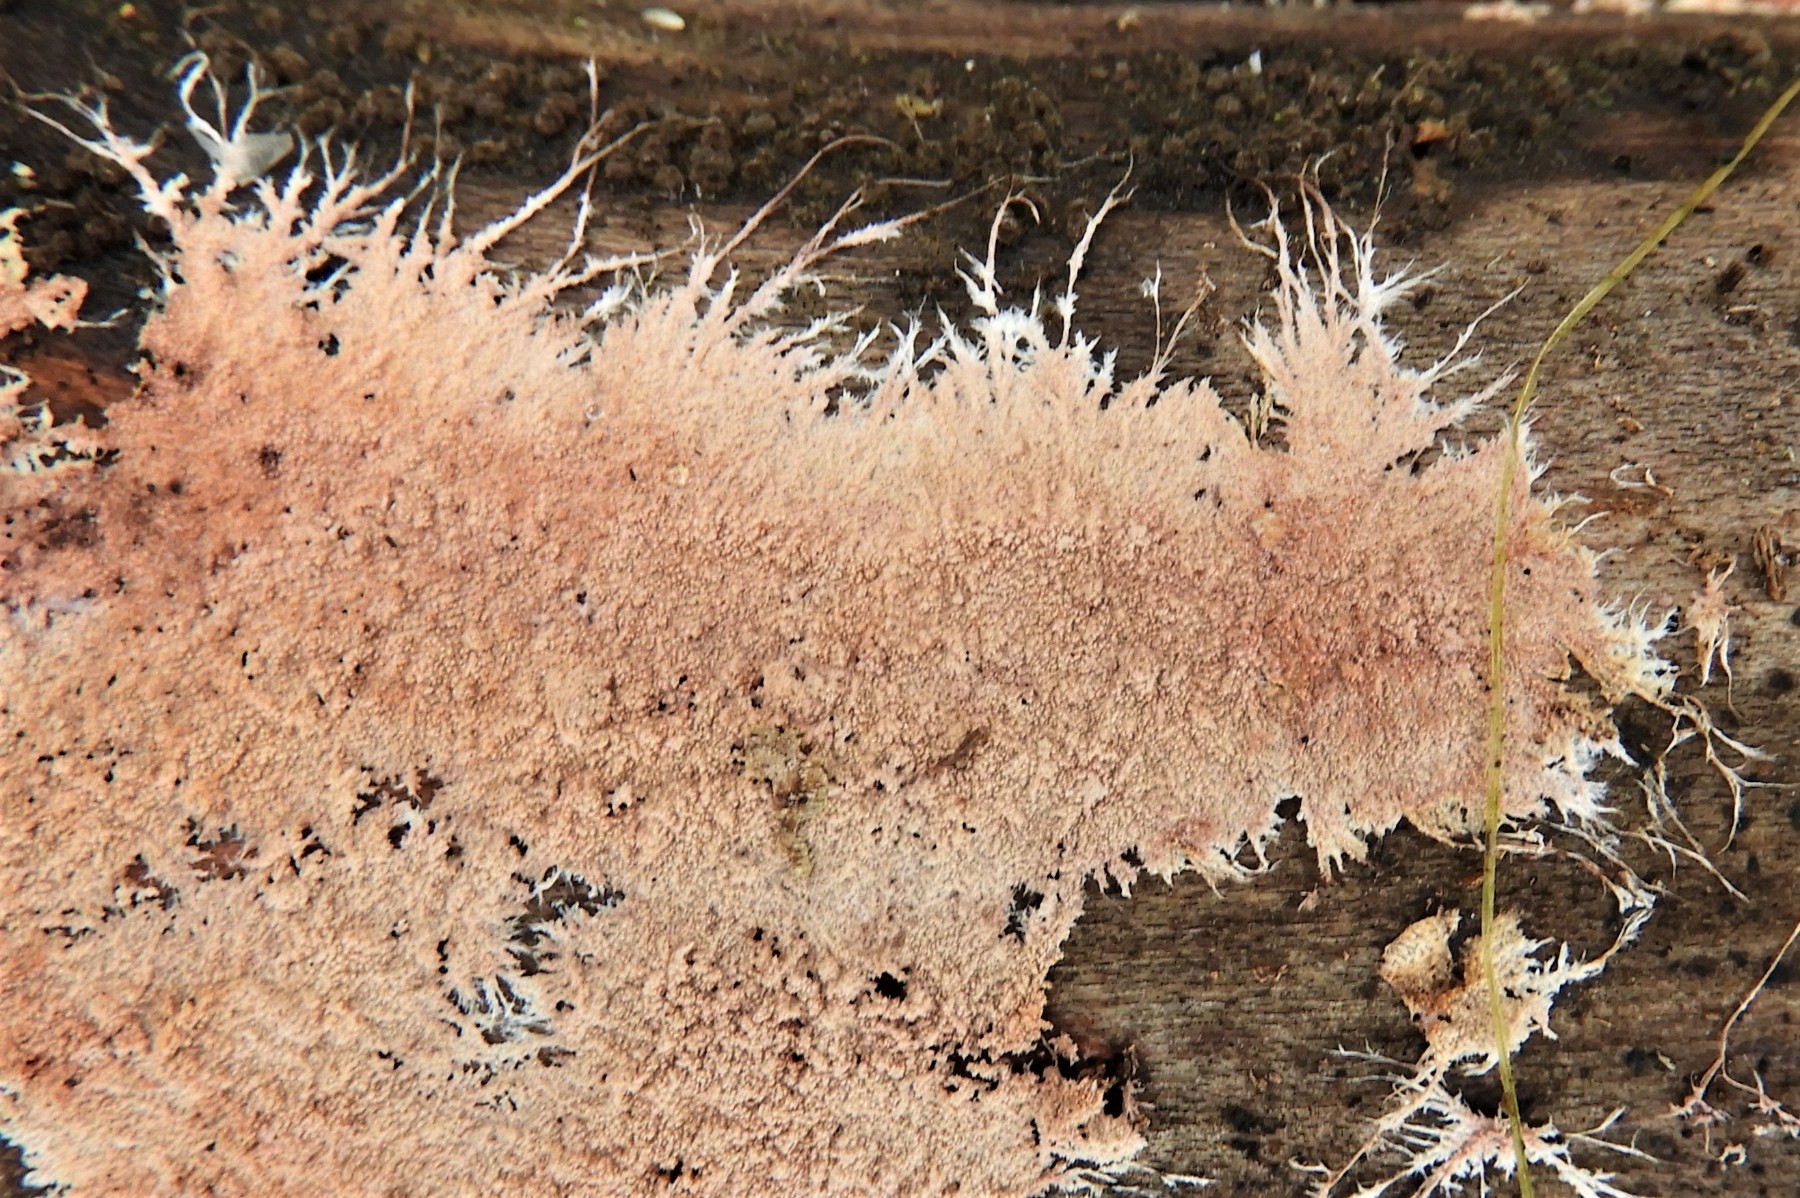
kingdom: Fungi
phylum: Basidiomycota
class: Agaricomycetes
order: Polyporales
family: Steccherinaceae
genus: Steccherinum
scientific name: Steccherinum fimbriatum
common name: trådet skønpig
